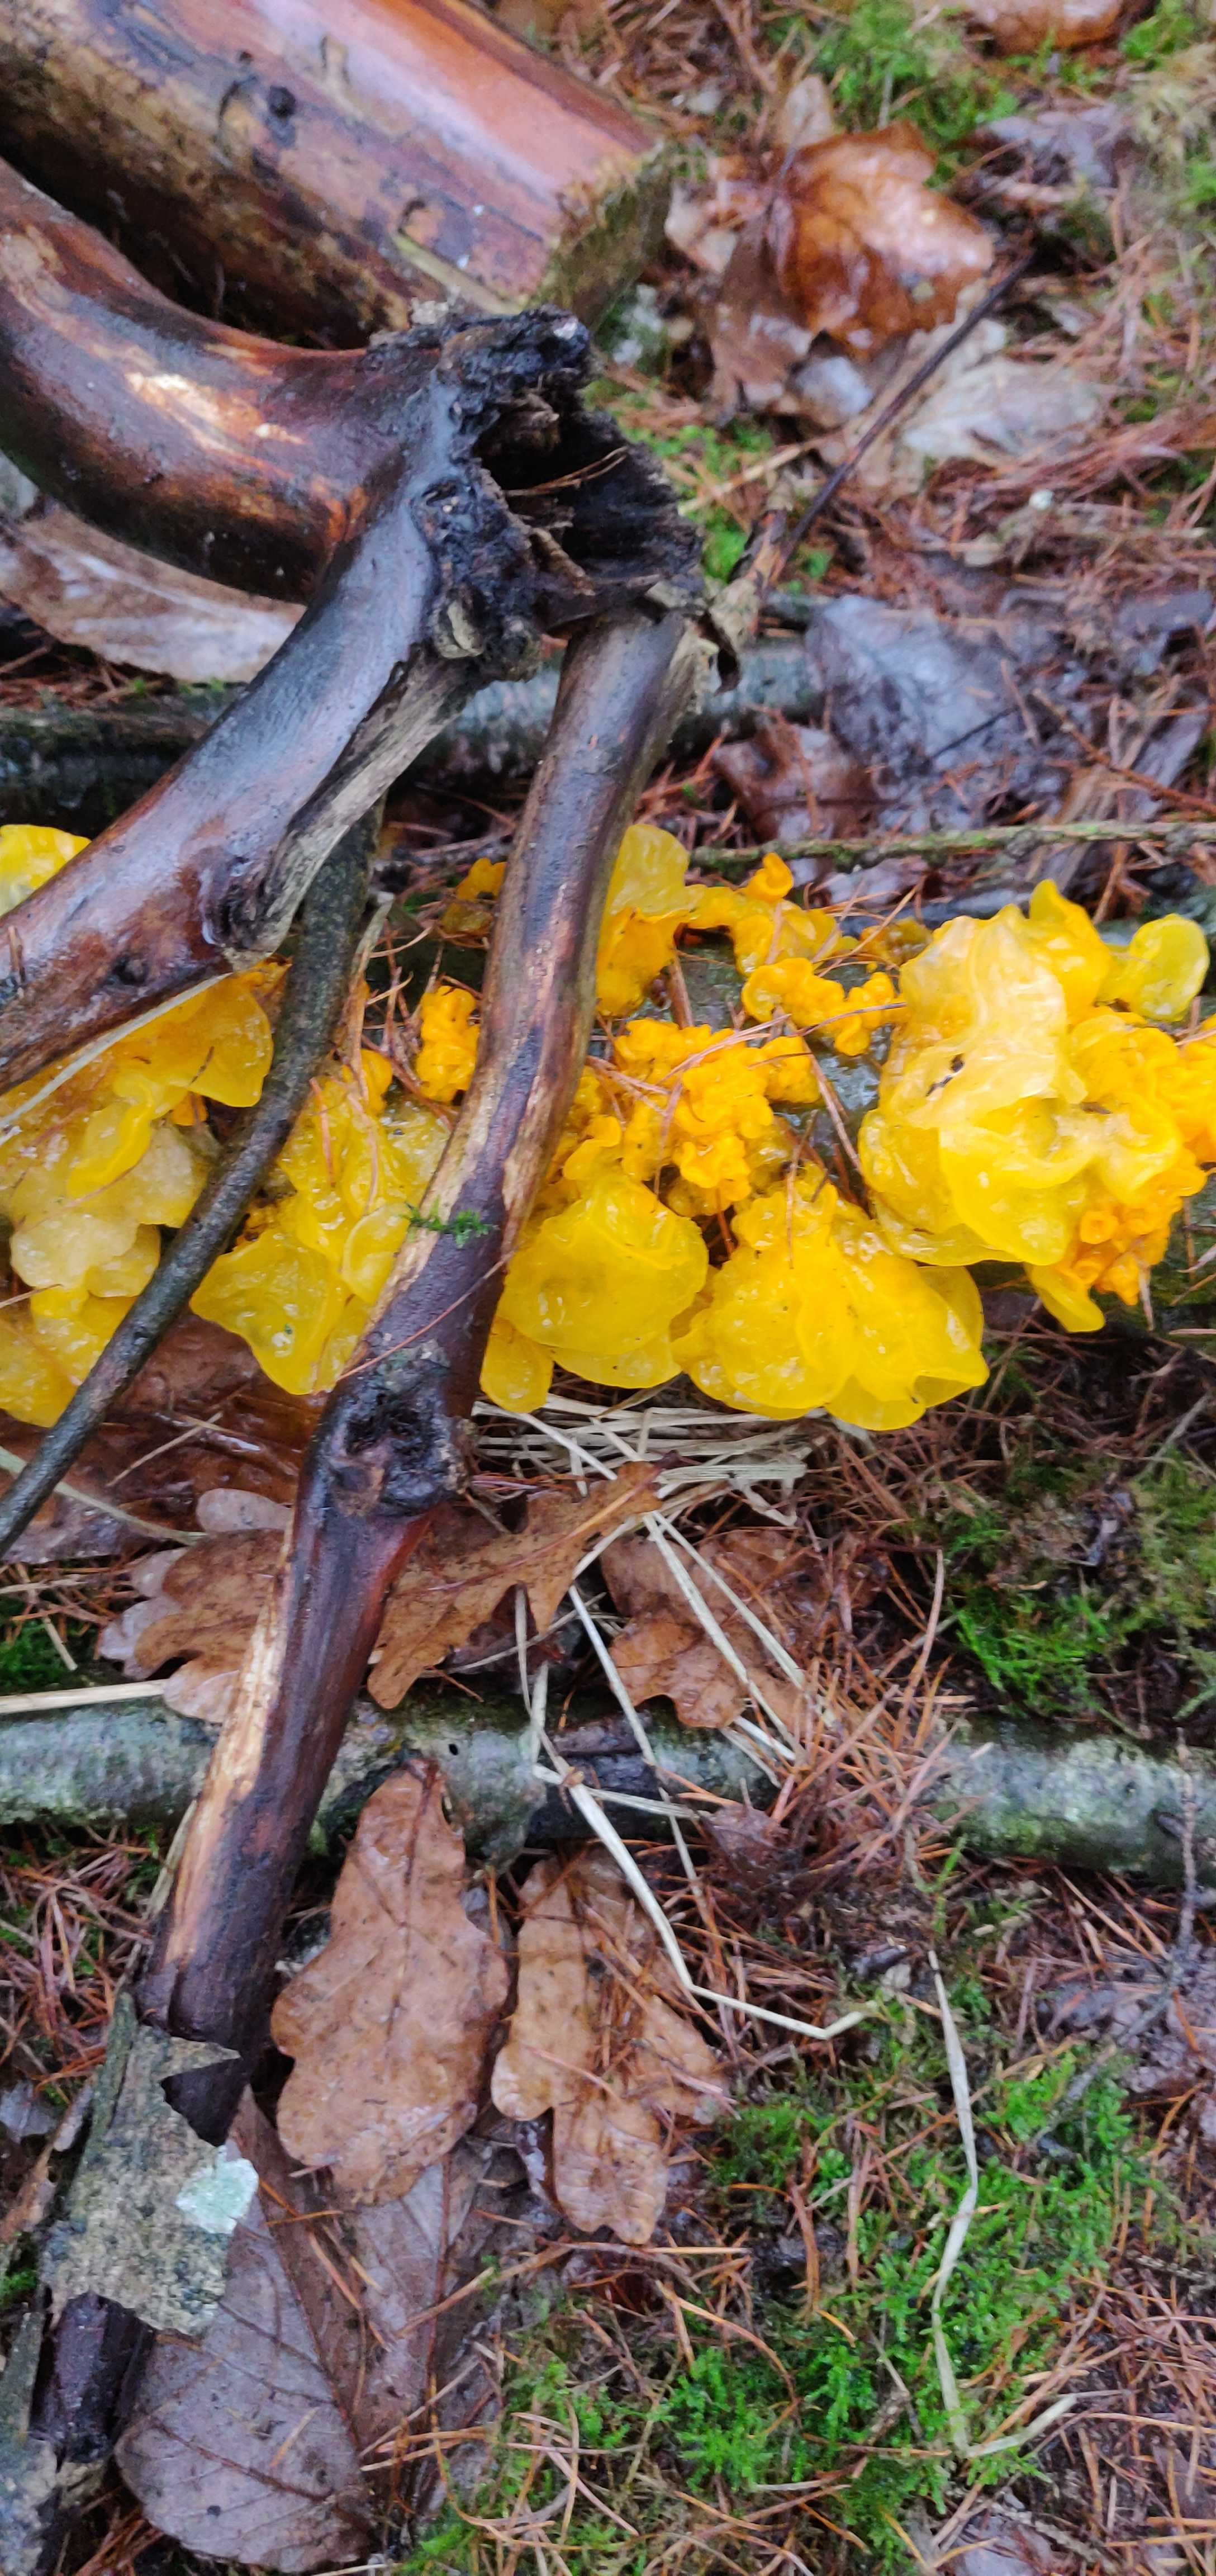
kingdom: Fungi
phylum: Basidiomycota
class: Tremellomycetes
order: Tremellales
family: Tremellaceae
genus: Tremella
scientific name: Tremella mesenterica
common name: gul bævresvamp
